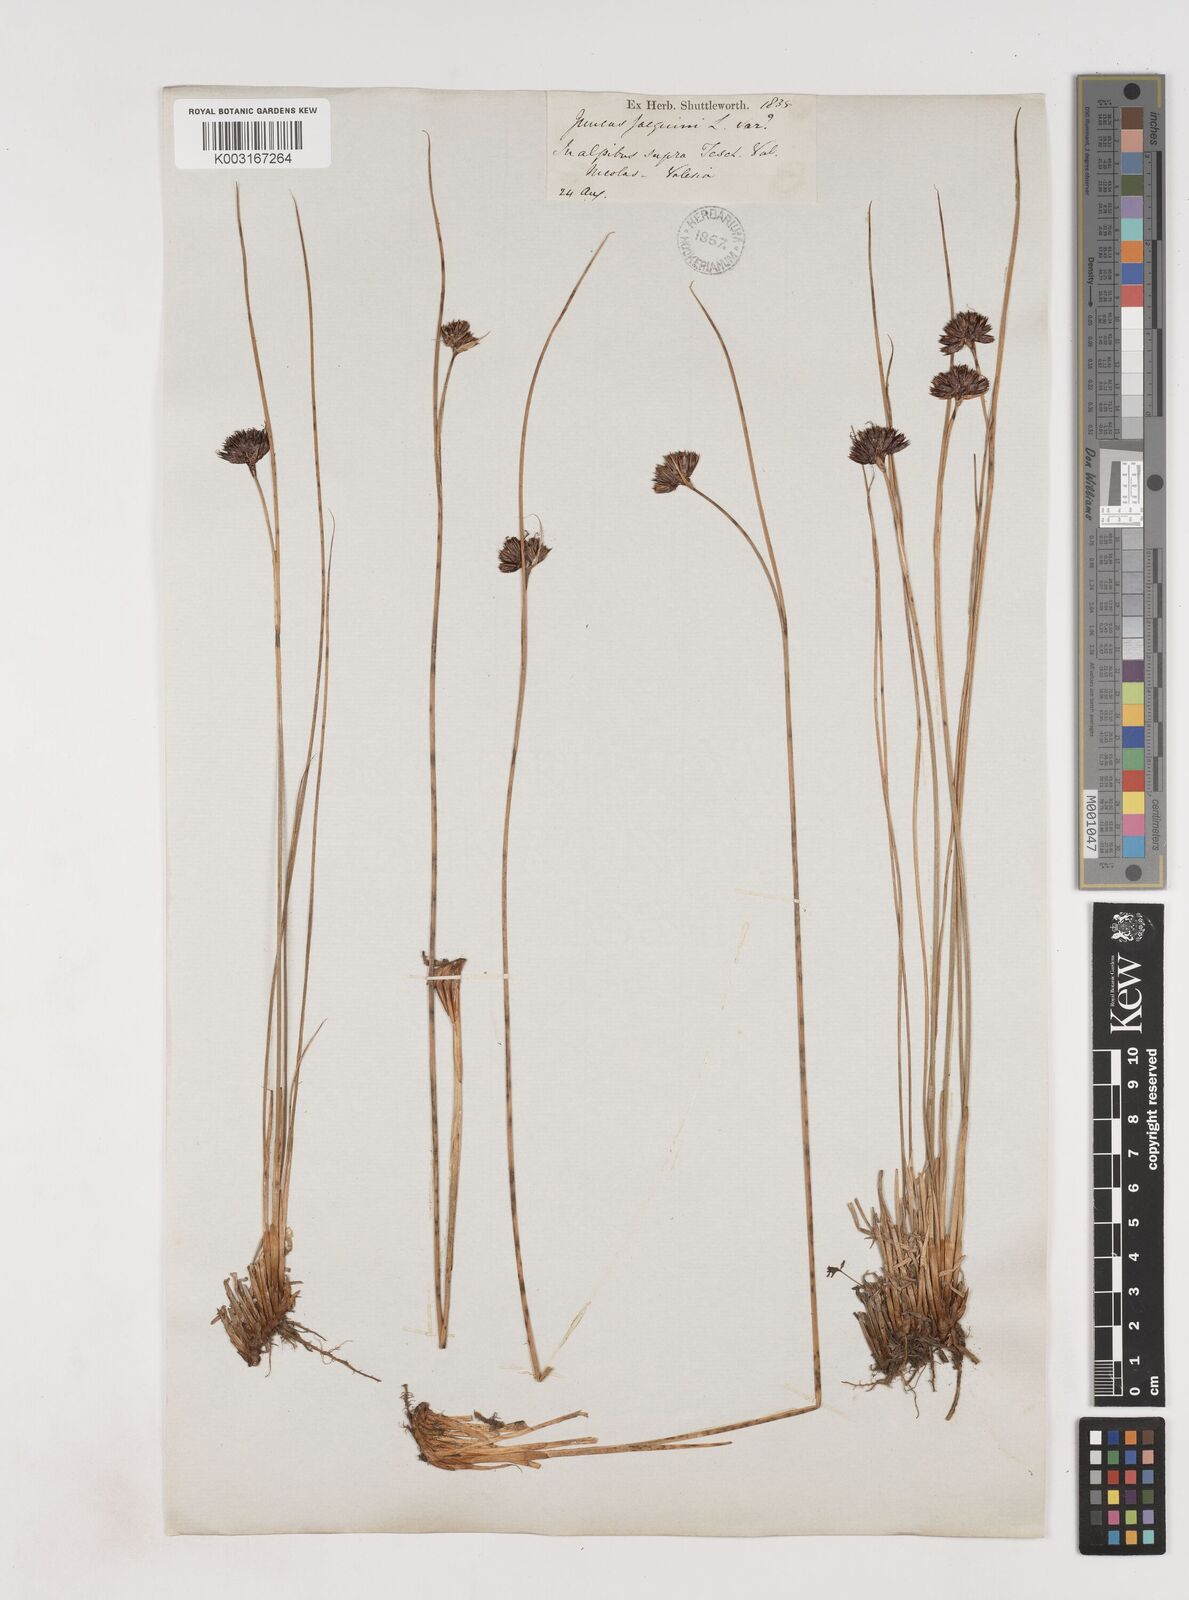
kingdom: Plantae
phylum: Tracheophyta
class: Liliopsida
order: Poales
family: Juncaceae
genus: Juncus
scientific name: Juncus jacquinii
